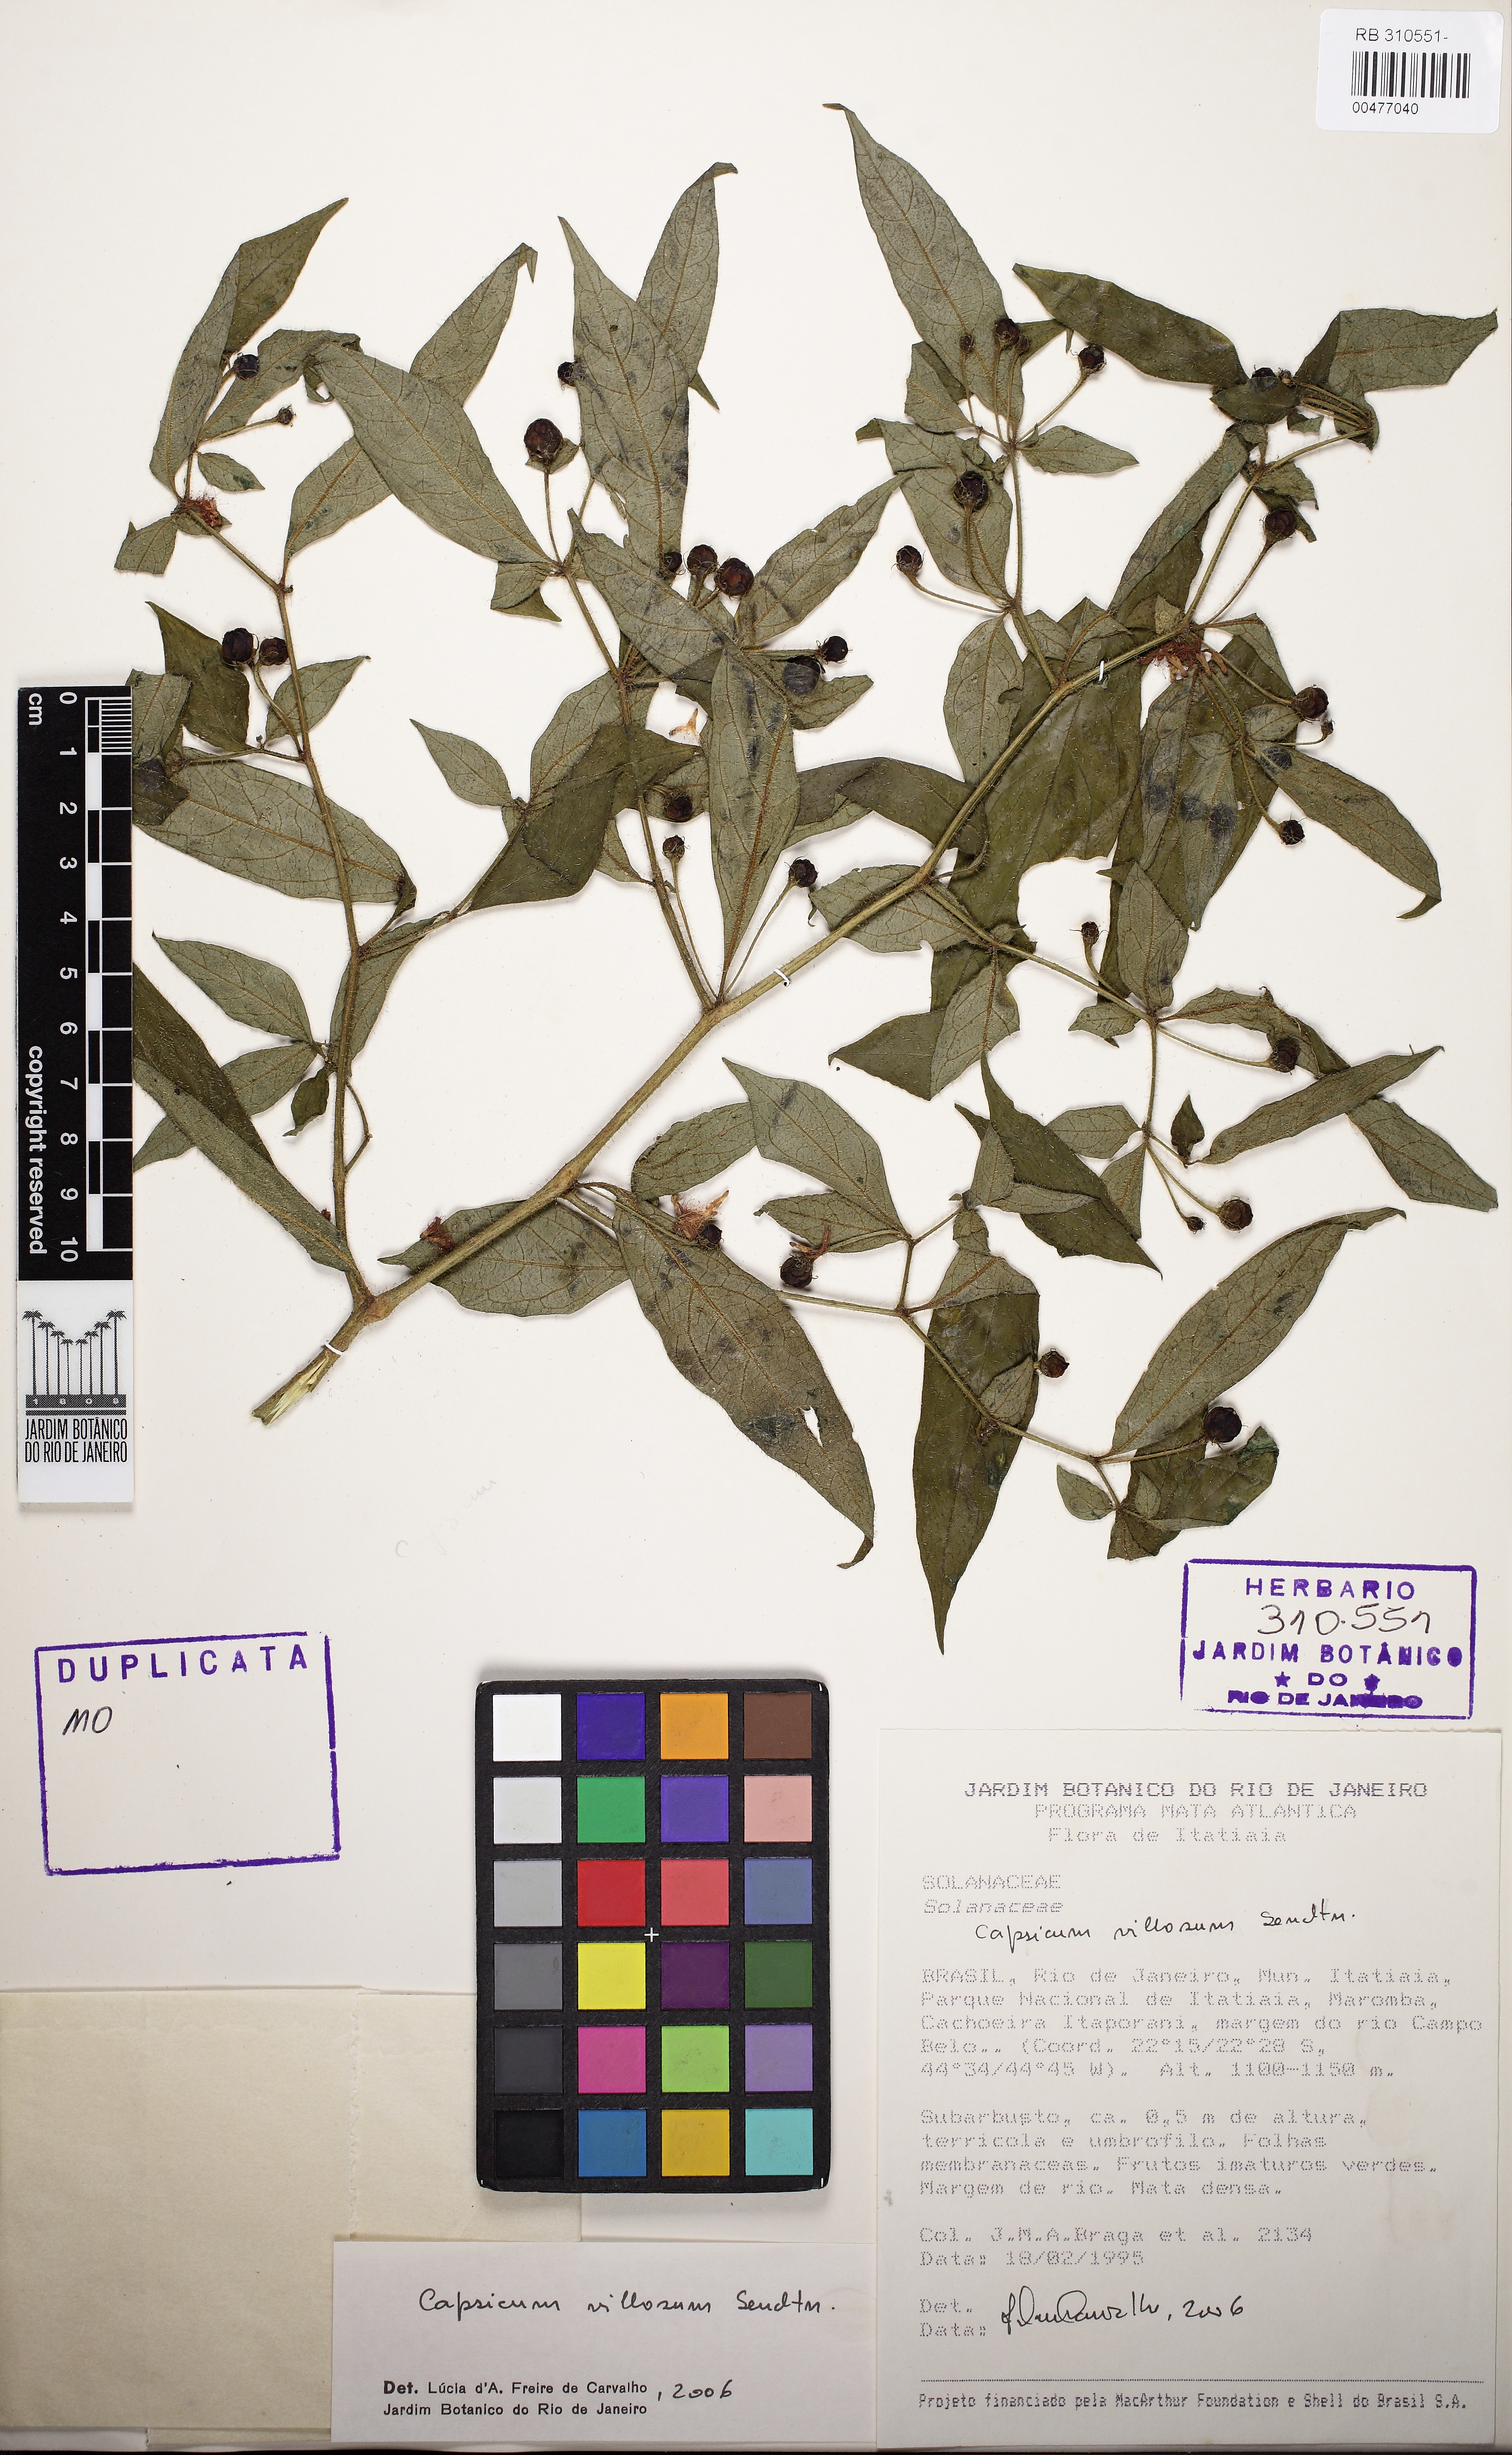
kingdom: Plantae
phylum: Tracheophyta
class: Magnoliopsida
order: Solanales
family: Solanaceae
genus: Capsicum
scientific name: Capsicum villosum
